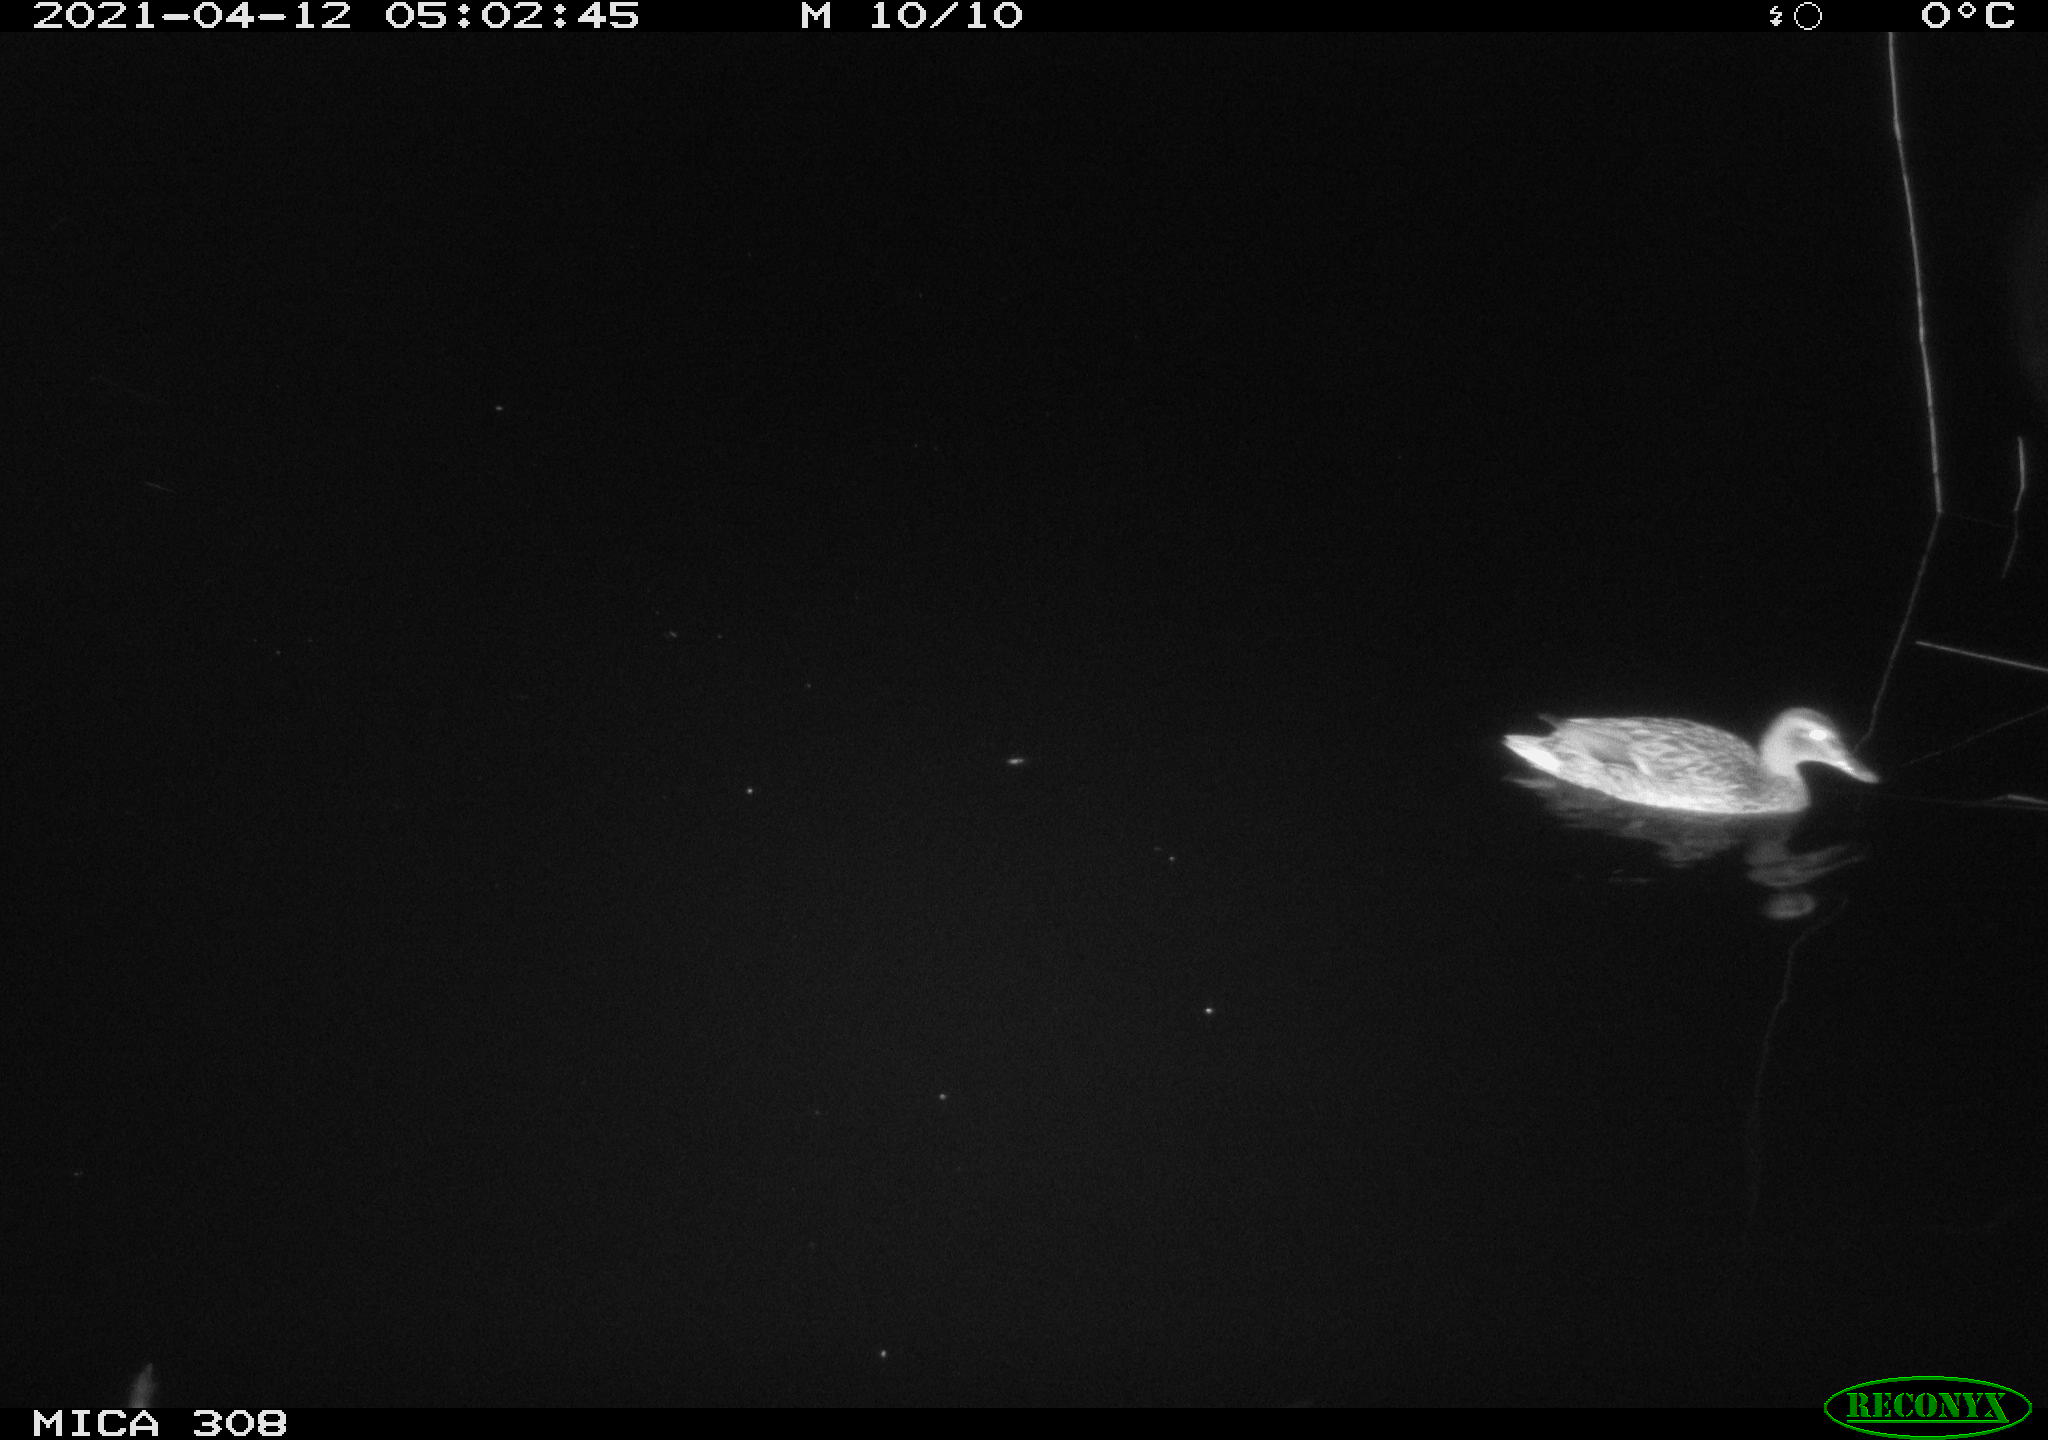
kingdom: Animalia
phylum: Chordata
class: Aves
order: Anseriformes
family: Anatidae
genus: Anas
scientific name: Anas platyrhynchos
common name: Mallard
